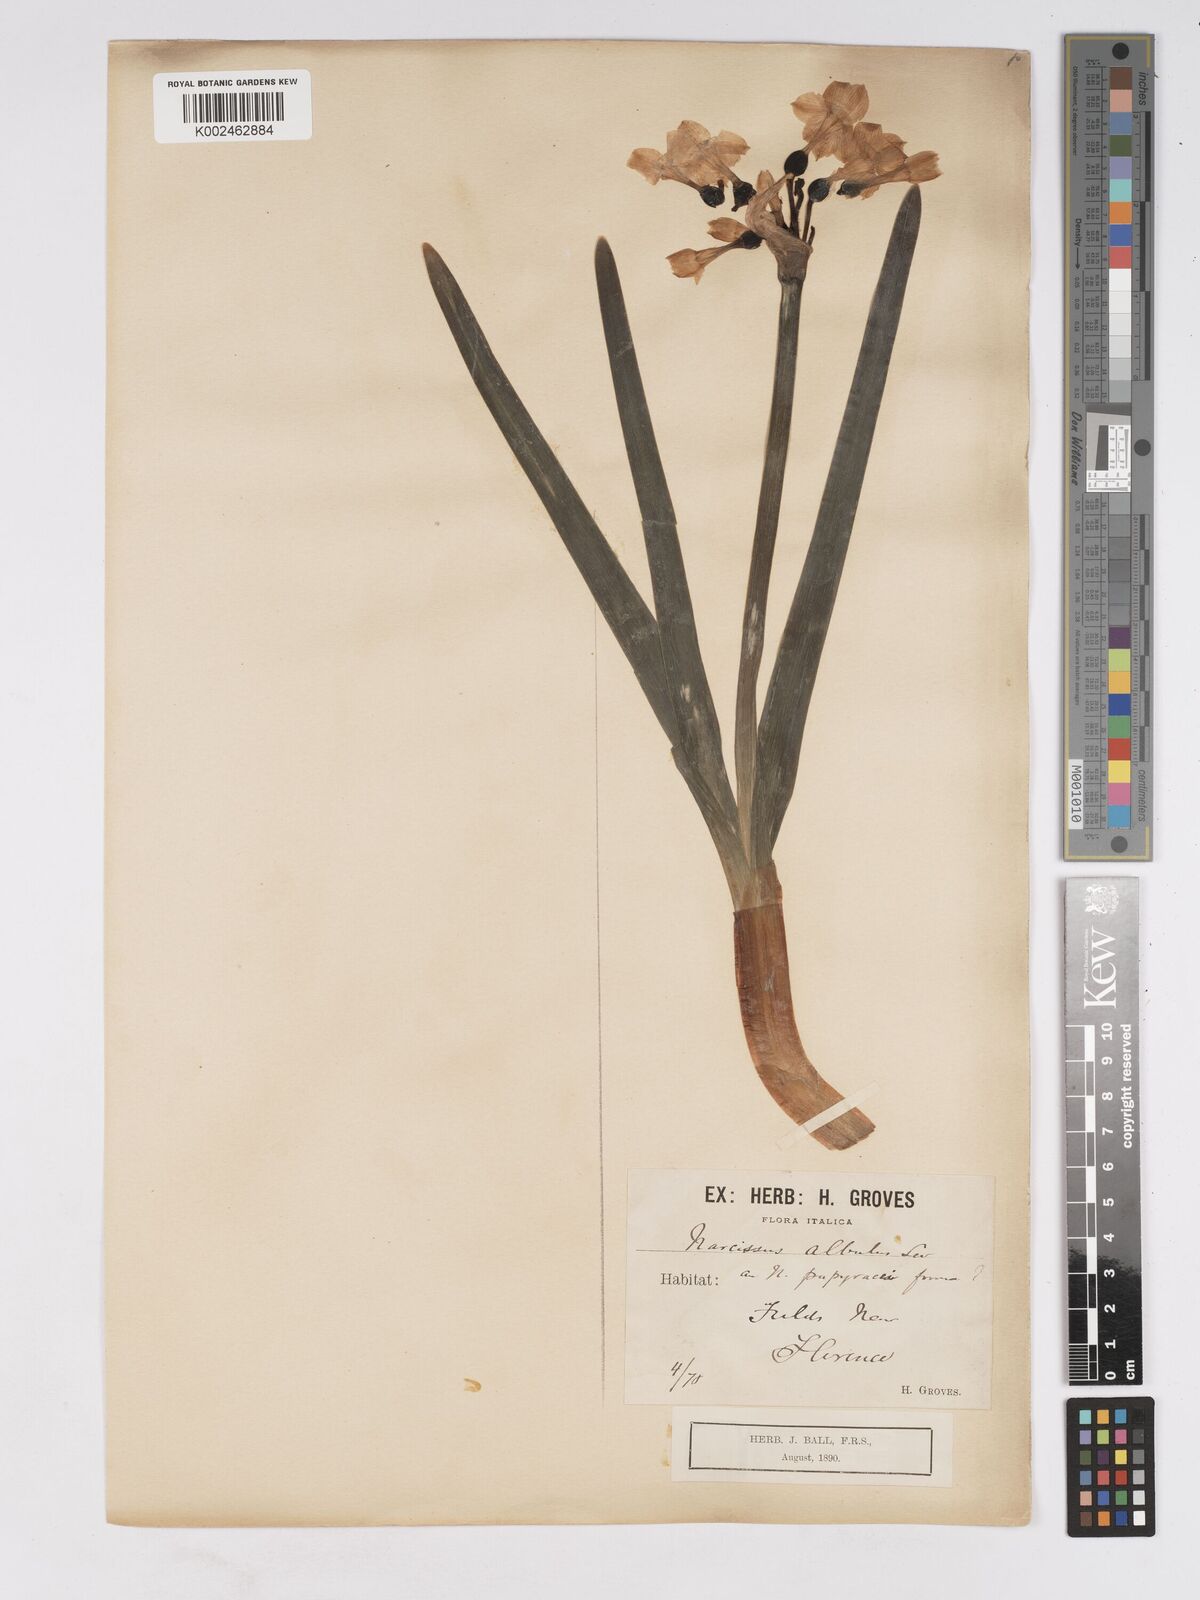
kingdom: Plantae
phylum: Tracheophyta
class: Liliopsida
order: Asparagales
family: Amaryllidaceae
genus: Narcissus
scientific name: Narcissus papyraceus
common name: Paper-white daffodil
